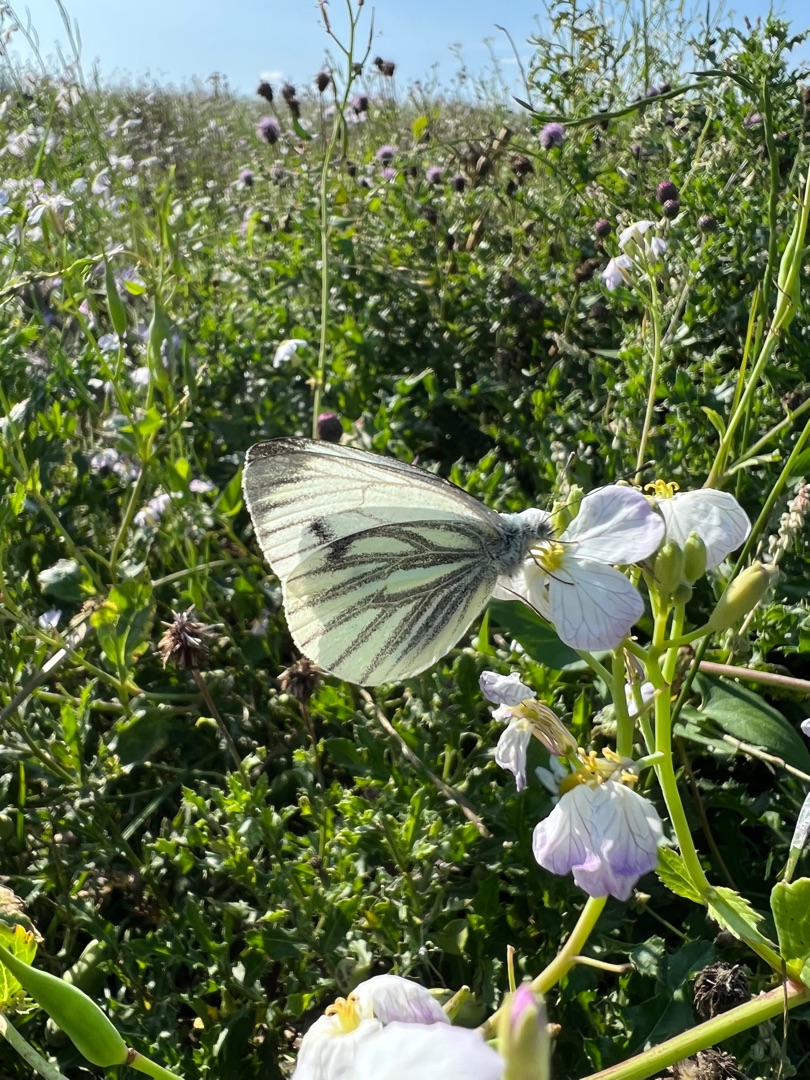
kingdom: Animalia
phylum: Arthropoda
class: Insecta
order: Lepidoptera
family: Pieridae
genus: Pieris
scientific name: Pieris napi
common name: Grønåret kålsommerfugl
